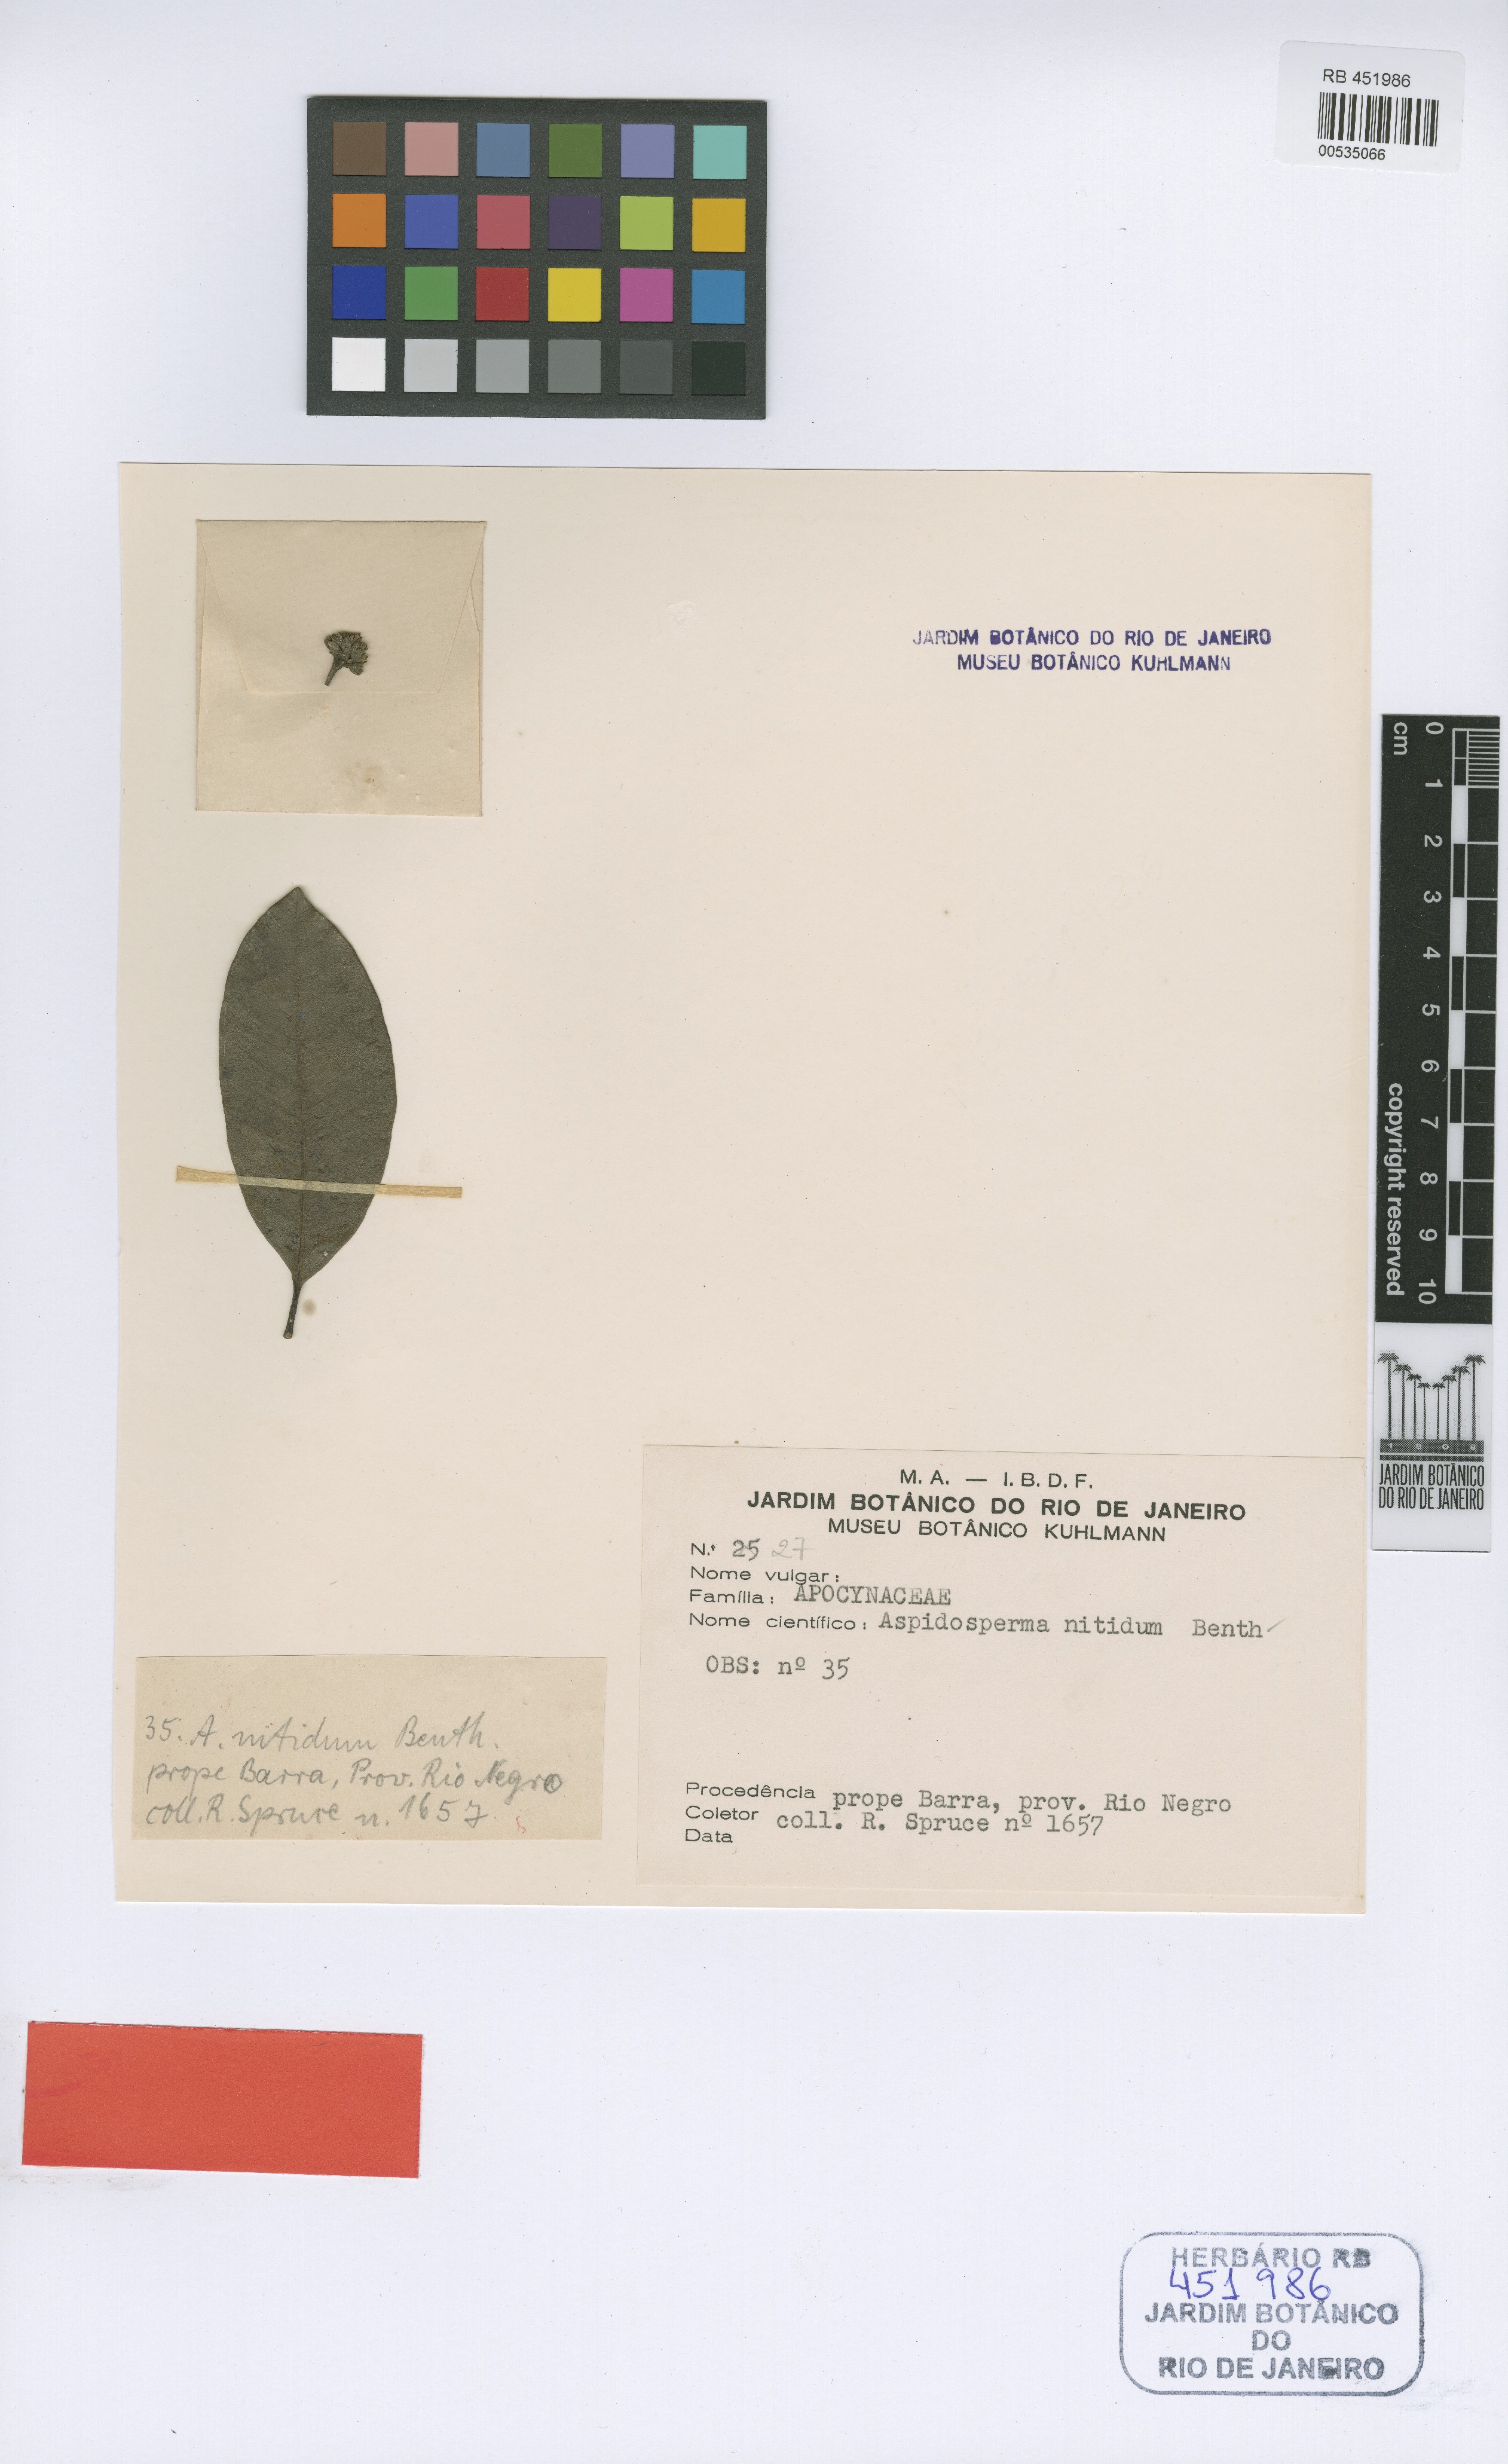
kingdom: Plantae
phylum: Tracheophyta
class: Magnoliopsida
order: Gentianales
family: Apocynaceae
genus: Aspidosperma
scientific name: Aspidosperma excelsum
